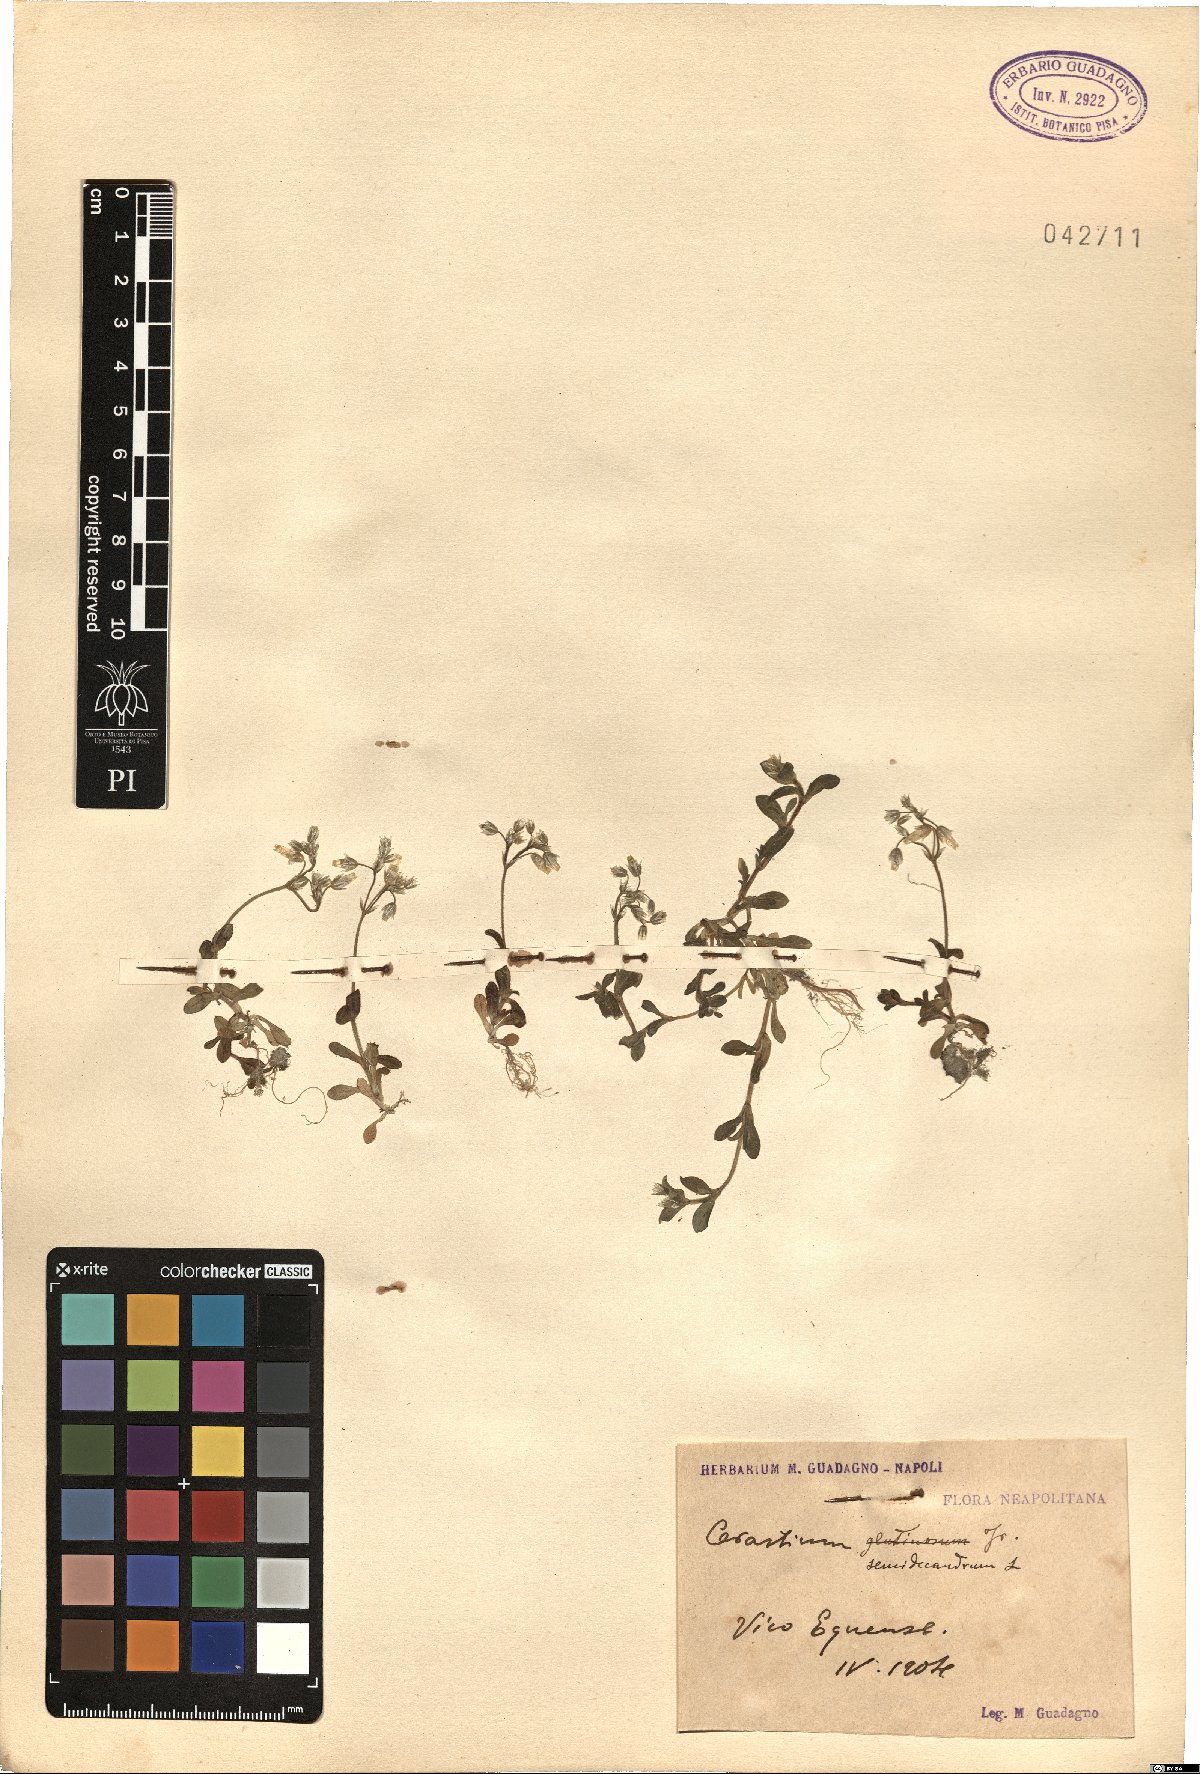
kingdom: Plantae
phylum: Tracheophyta
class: Magnoliopsida
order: Caryophyllales
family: Caryophyllaceae
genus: Cerastium
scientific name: Cerastium semidecandrum
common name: Little mouse-ear
